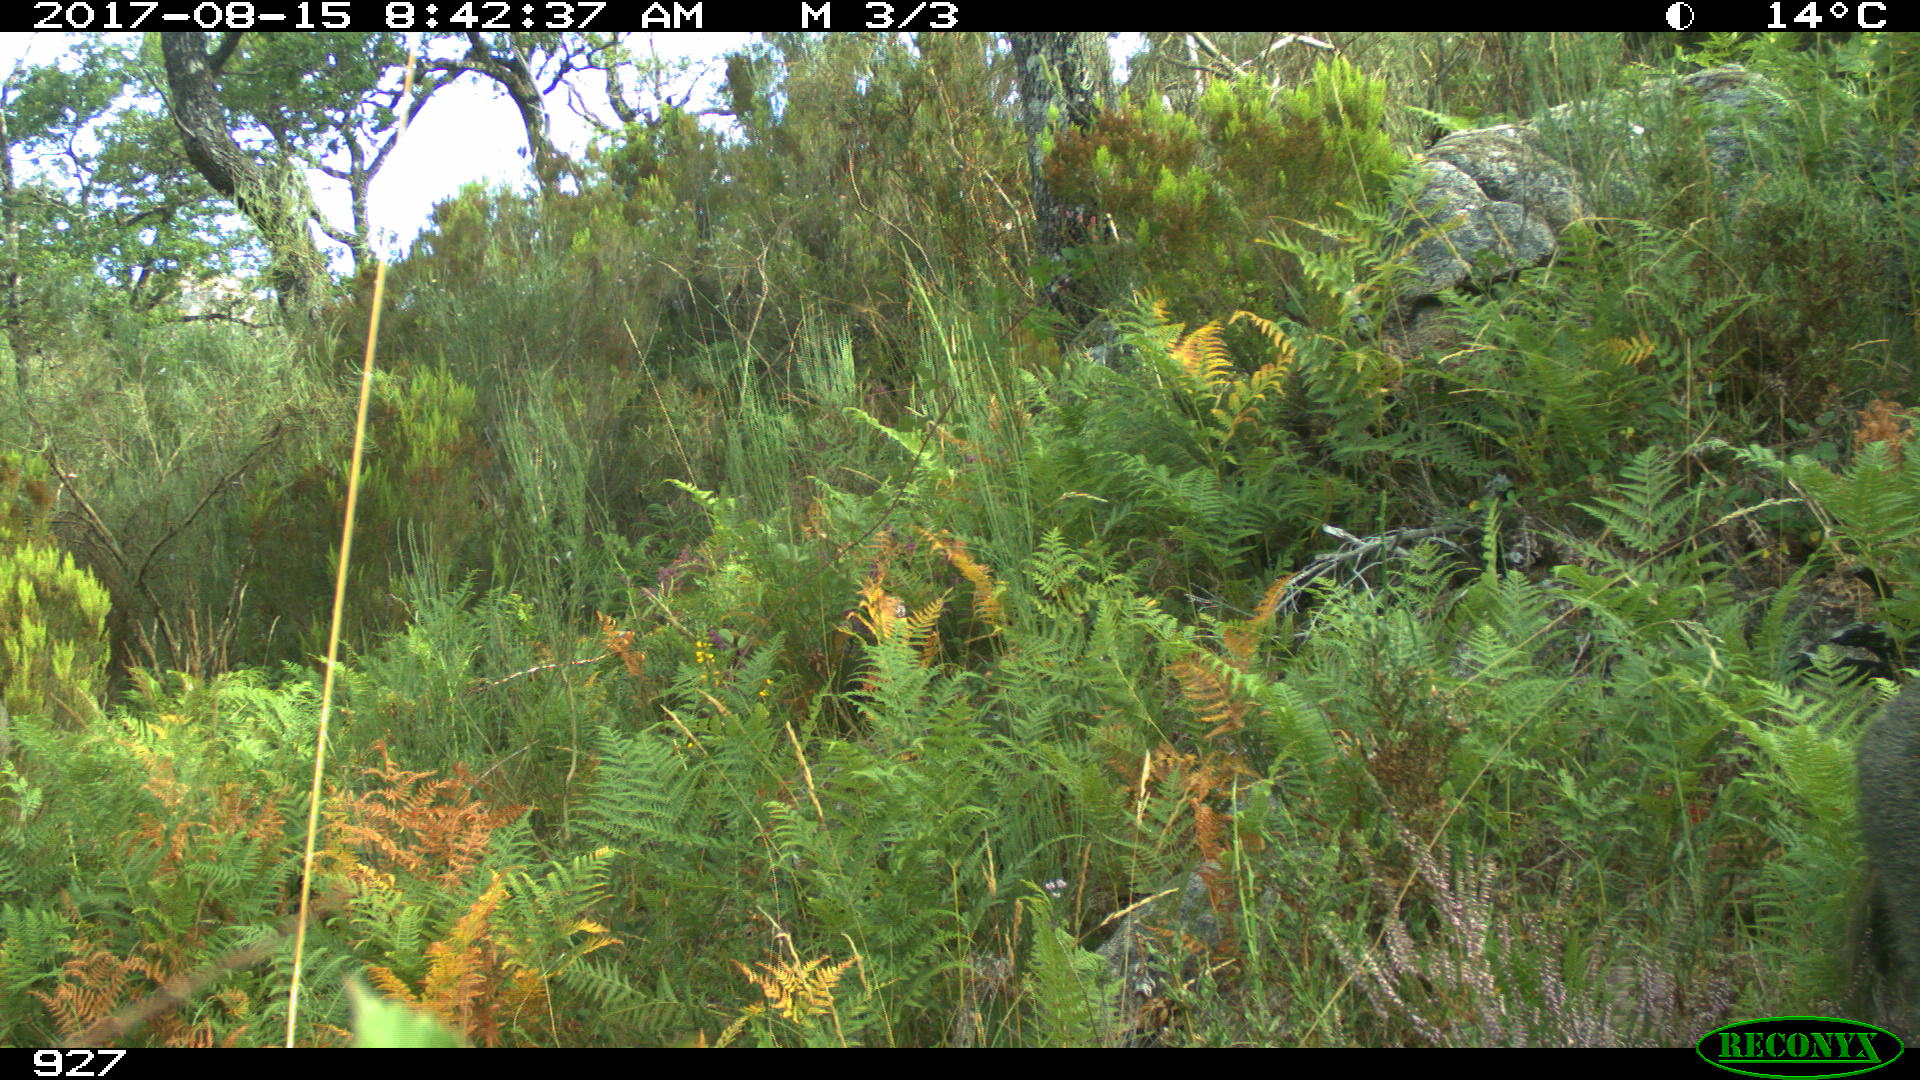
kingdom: Animalia
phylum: Chordata
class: Mammalia
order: Artiodactyla
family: Suidae
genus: Sus
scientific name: Sus scrofa
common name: Wild boar
